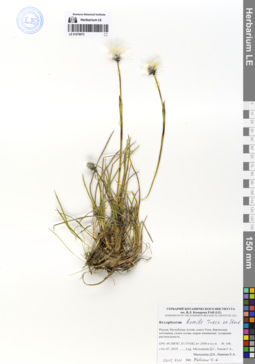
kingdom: Plantae
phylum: Tracheophyta
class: Liliopsida
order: Poales
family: Cyperaceae
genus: Eriophorum
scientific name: Eriophorum humile
